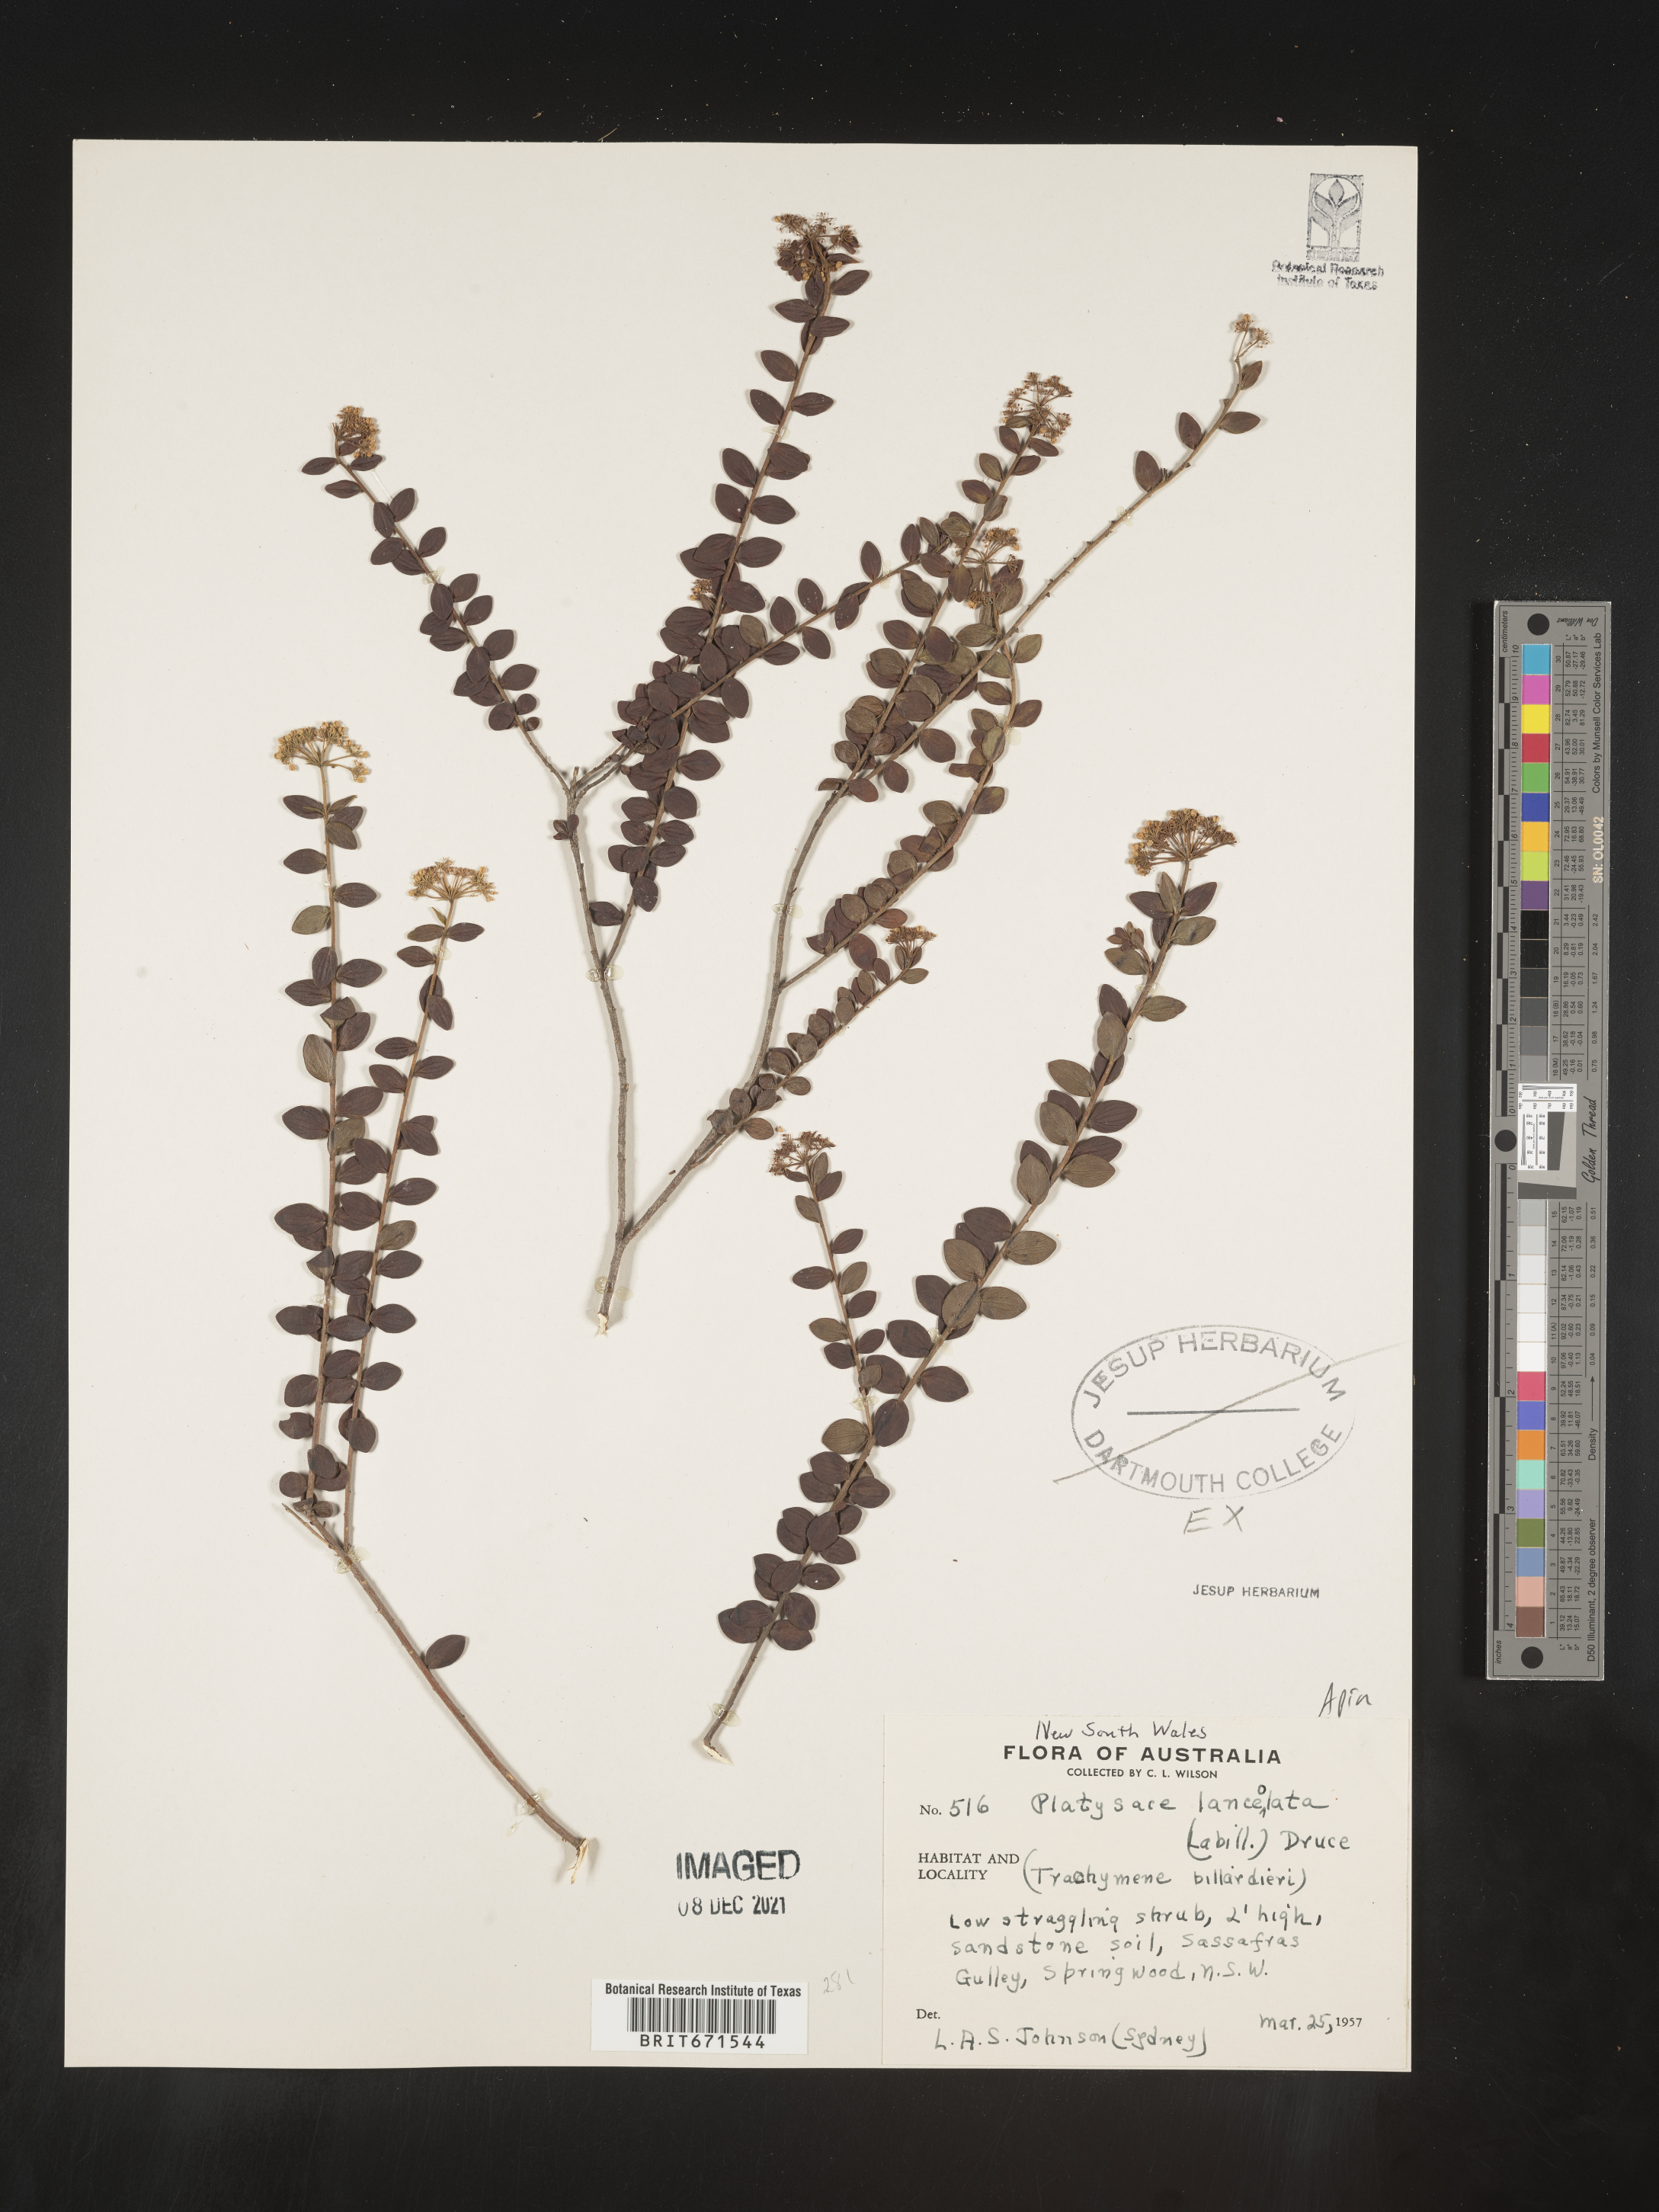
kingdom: Plantae
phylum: Tracheophyta
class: Magnoliopsida
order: Apiales
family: Apiaceae
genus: Platysace
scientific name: Platysace
